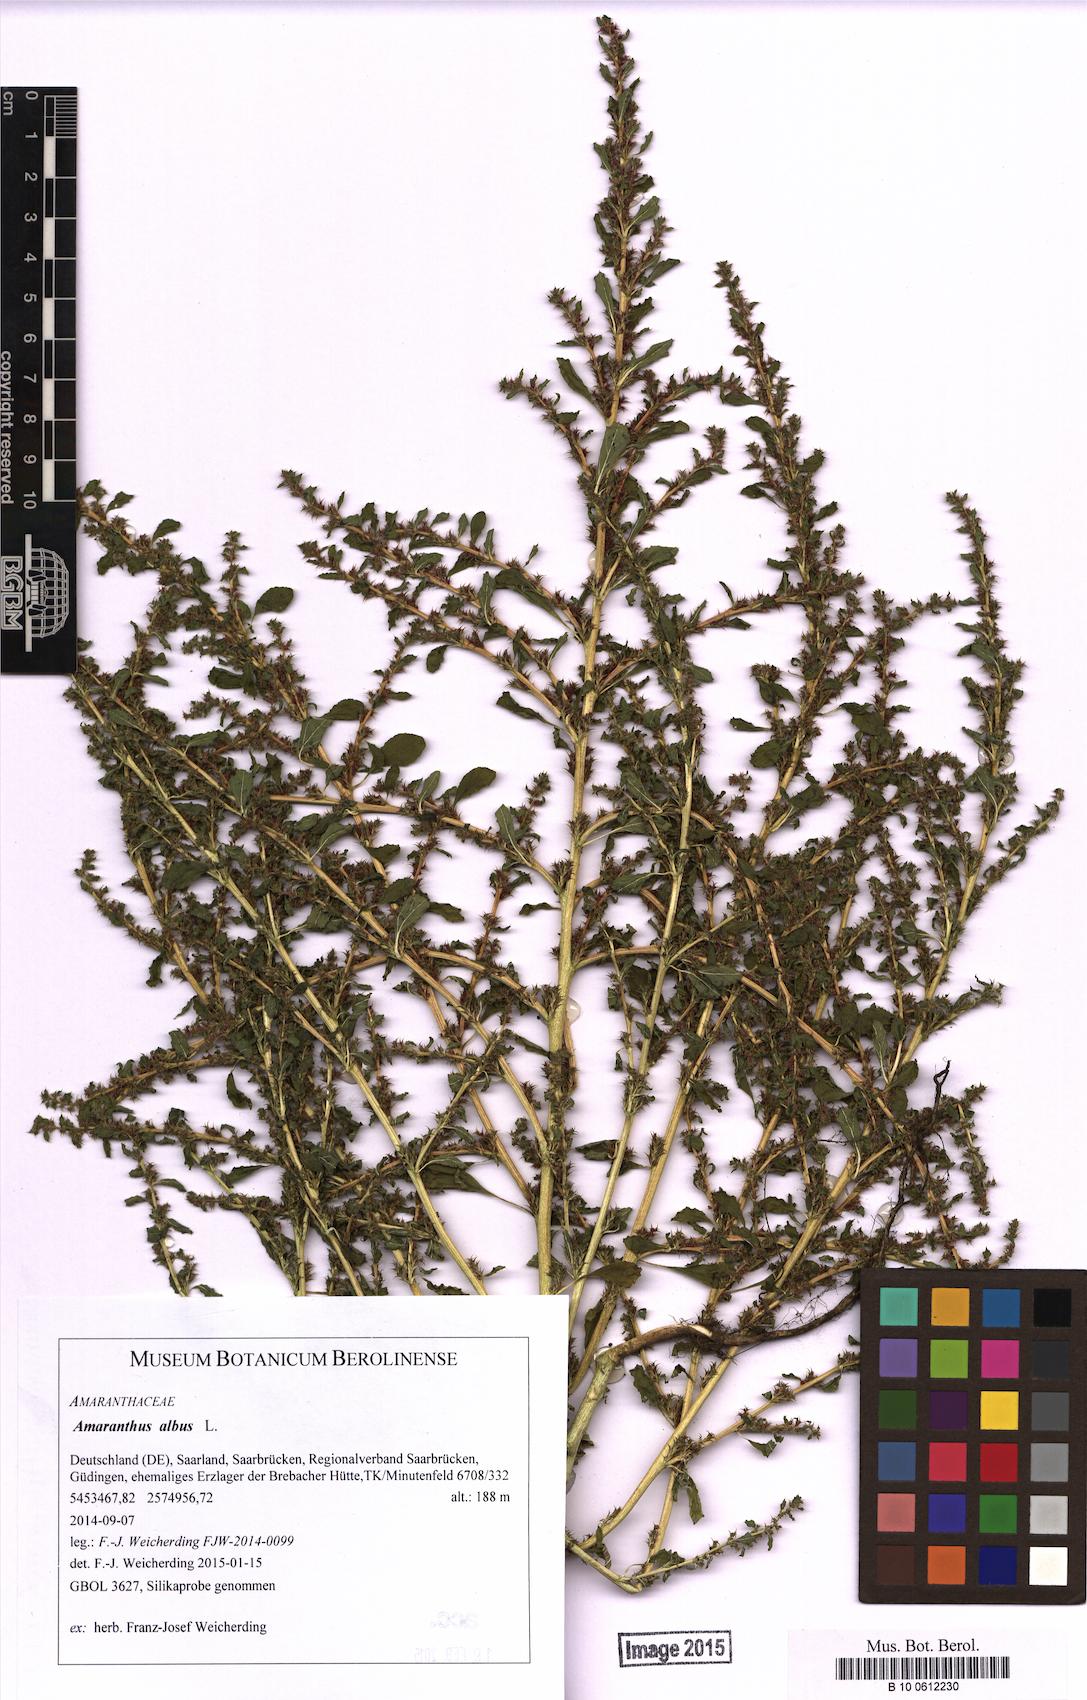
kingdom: Plantae
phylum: Tracheophyta
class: Magnoliopsida
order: Caryophyllales
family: Amaranthaceae
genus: Amaranthus
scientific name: Amaranthus albus
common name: White pigweed
